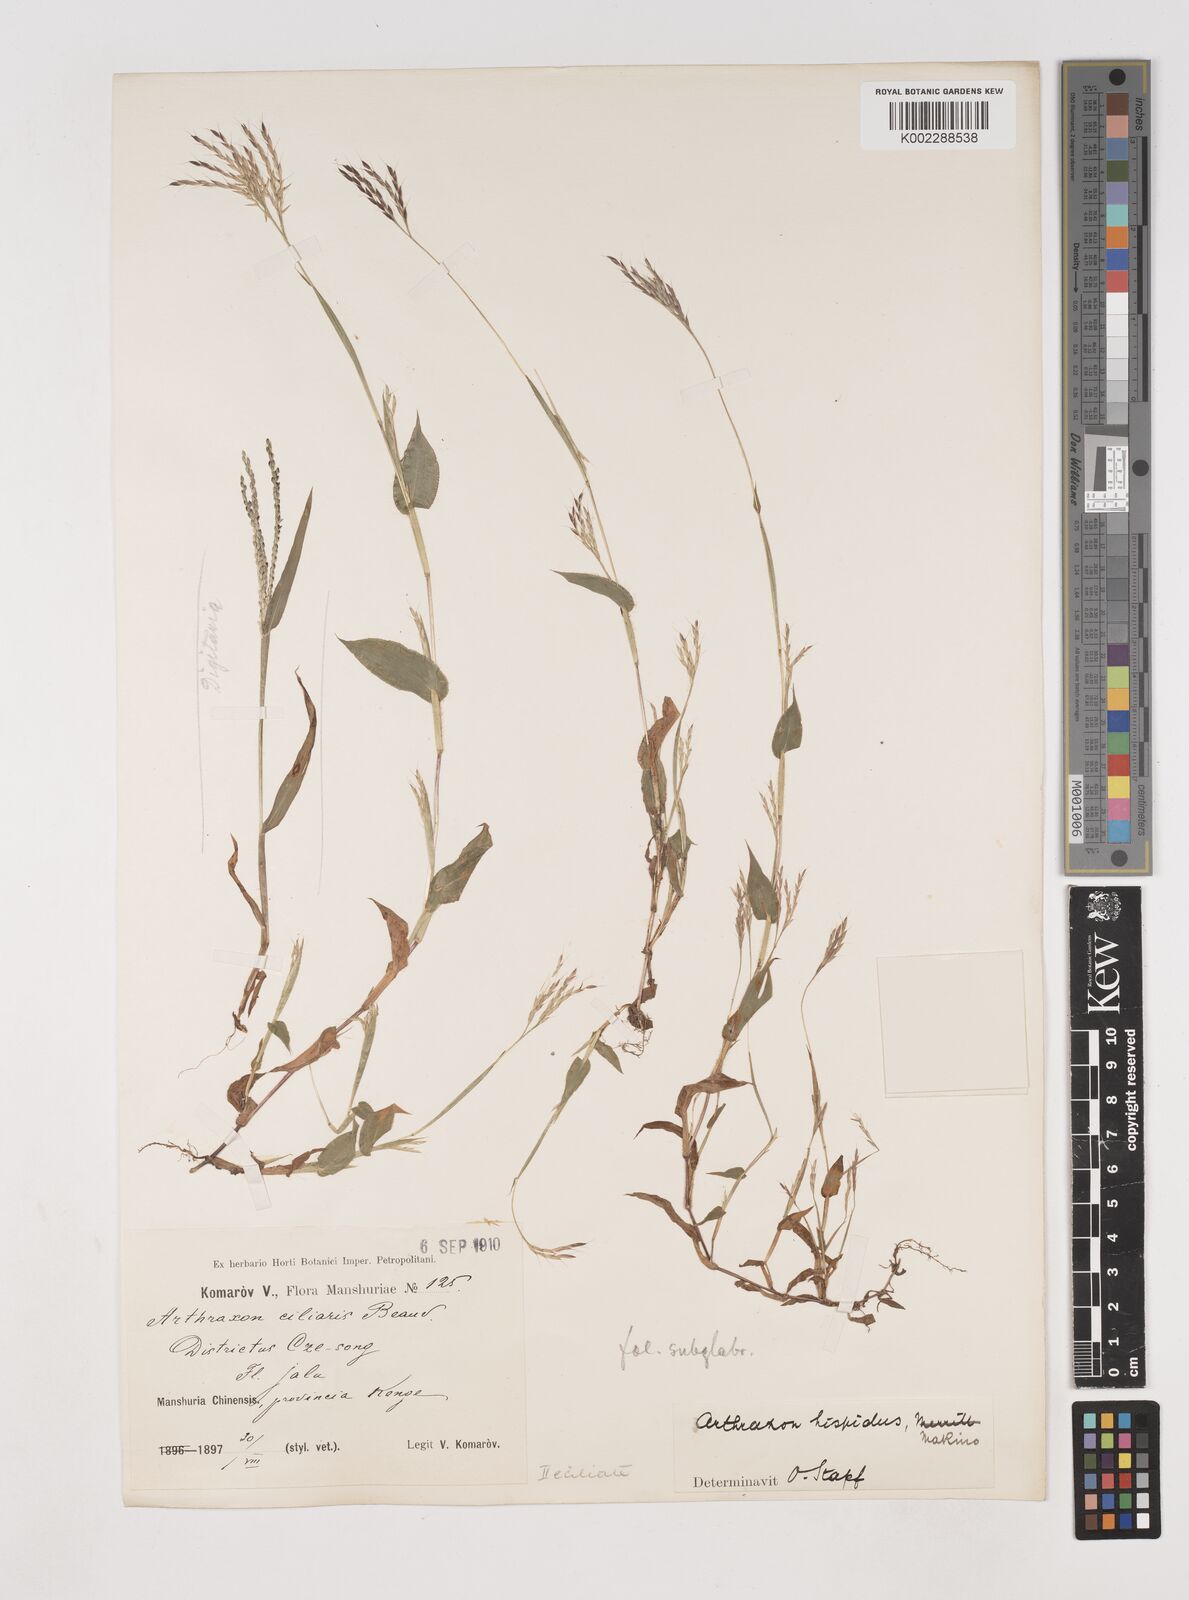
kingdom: Plantae
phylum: Tracheophyta
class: Liliopsida
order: Poales
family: Poaceae
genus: Arthraxon
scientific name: Arthraxon hispidus
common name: Small carpgrass
